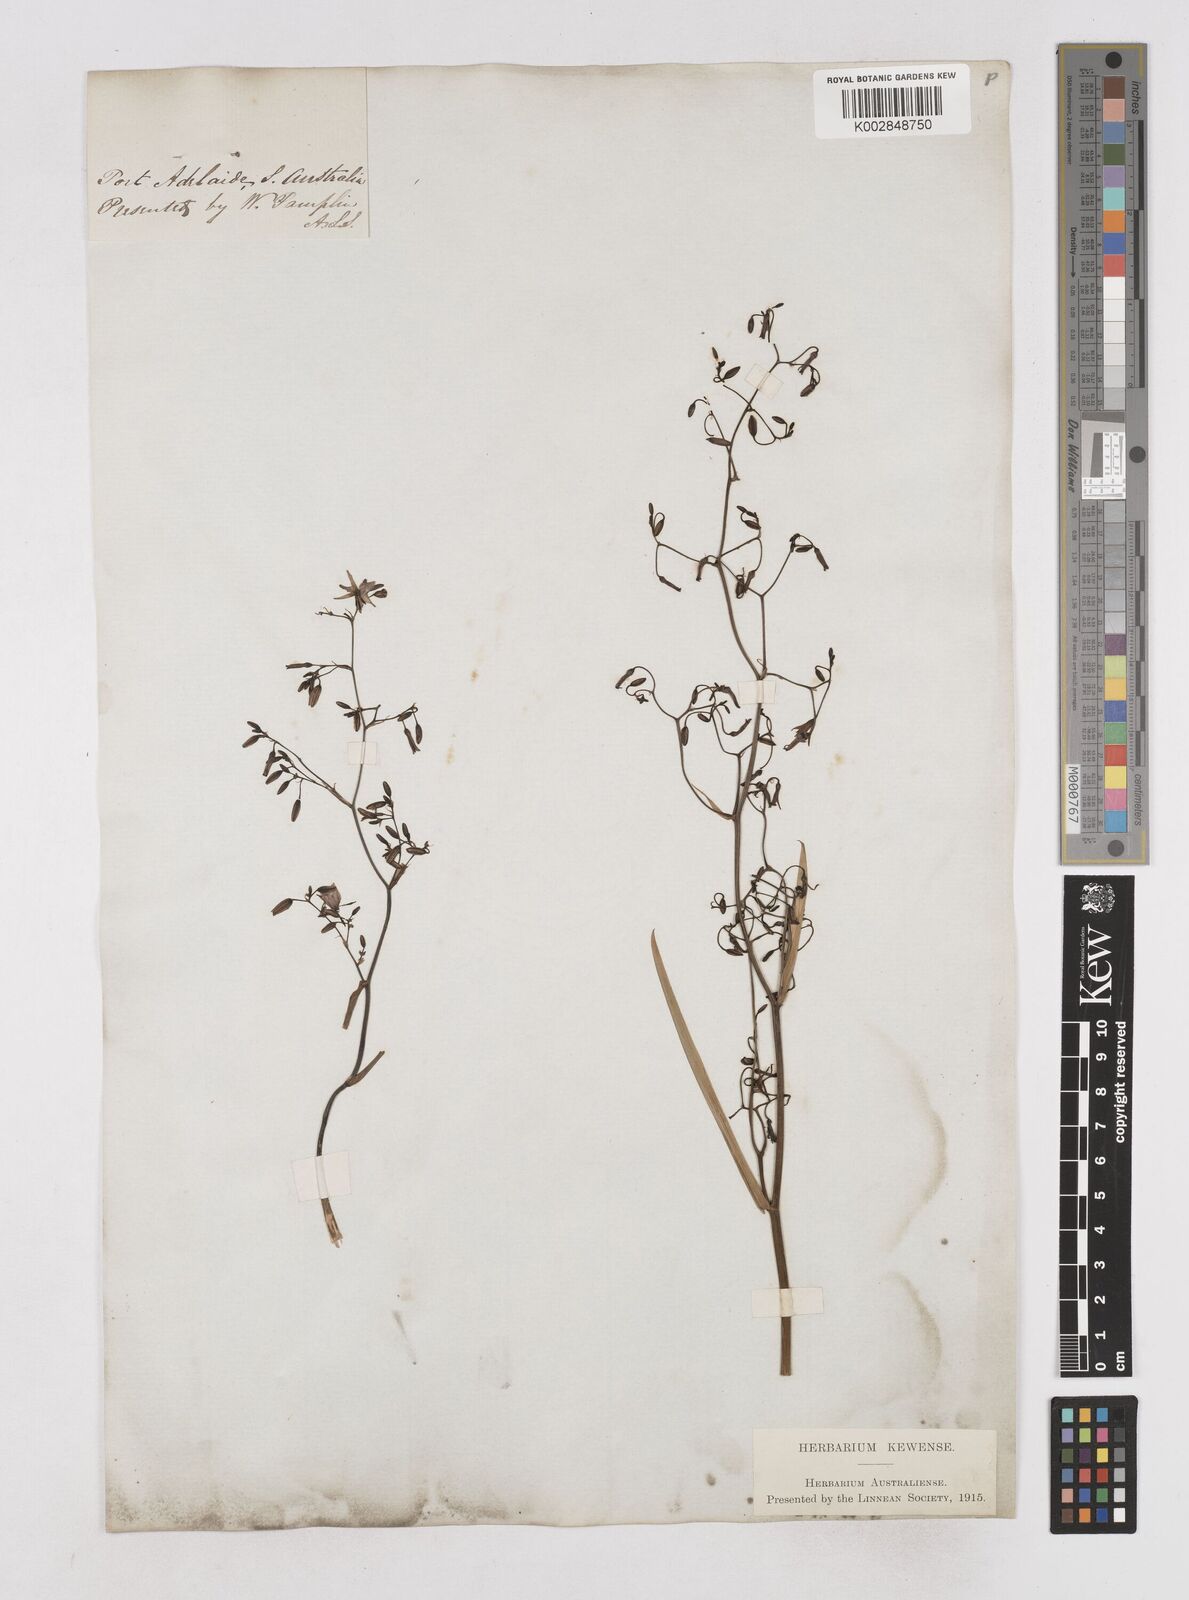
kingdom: Plantae
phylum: Tracheophyta
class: Liliopsida
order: Asparagales
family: Asphodelaceae
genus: Dianella
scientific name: Dianella
